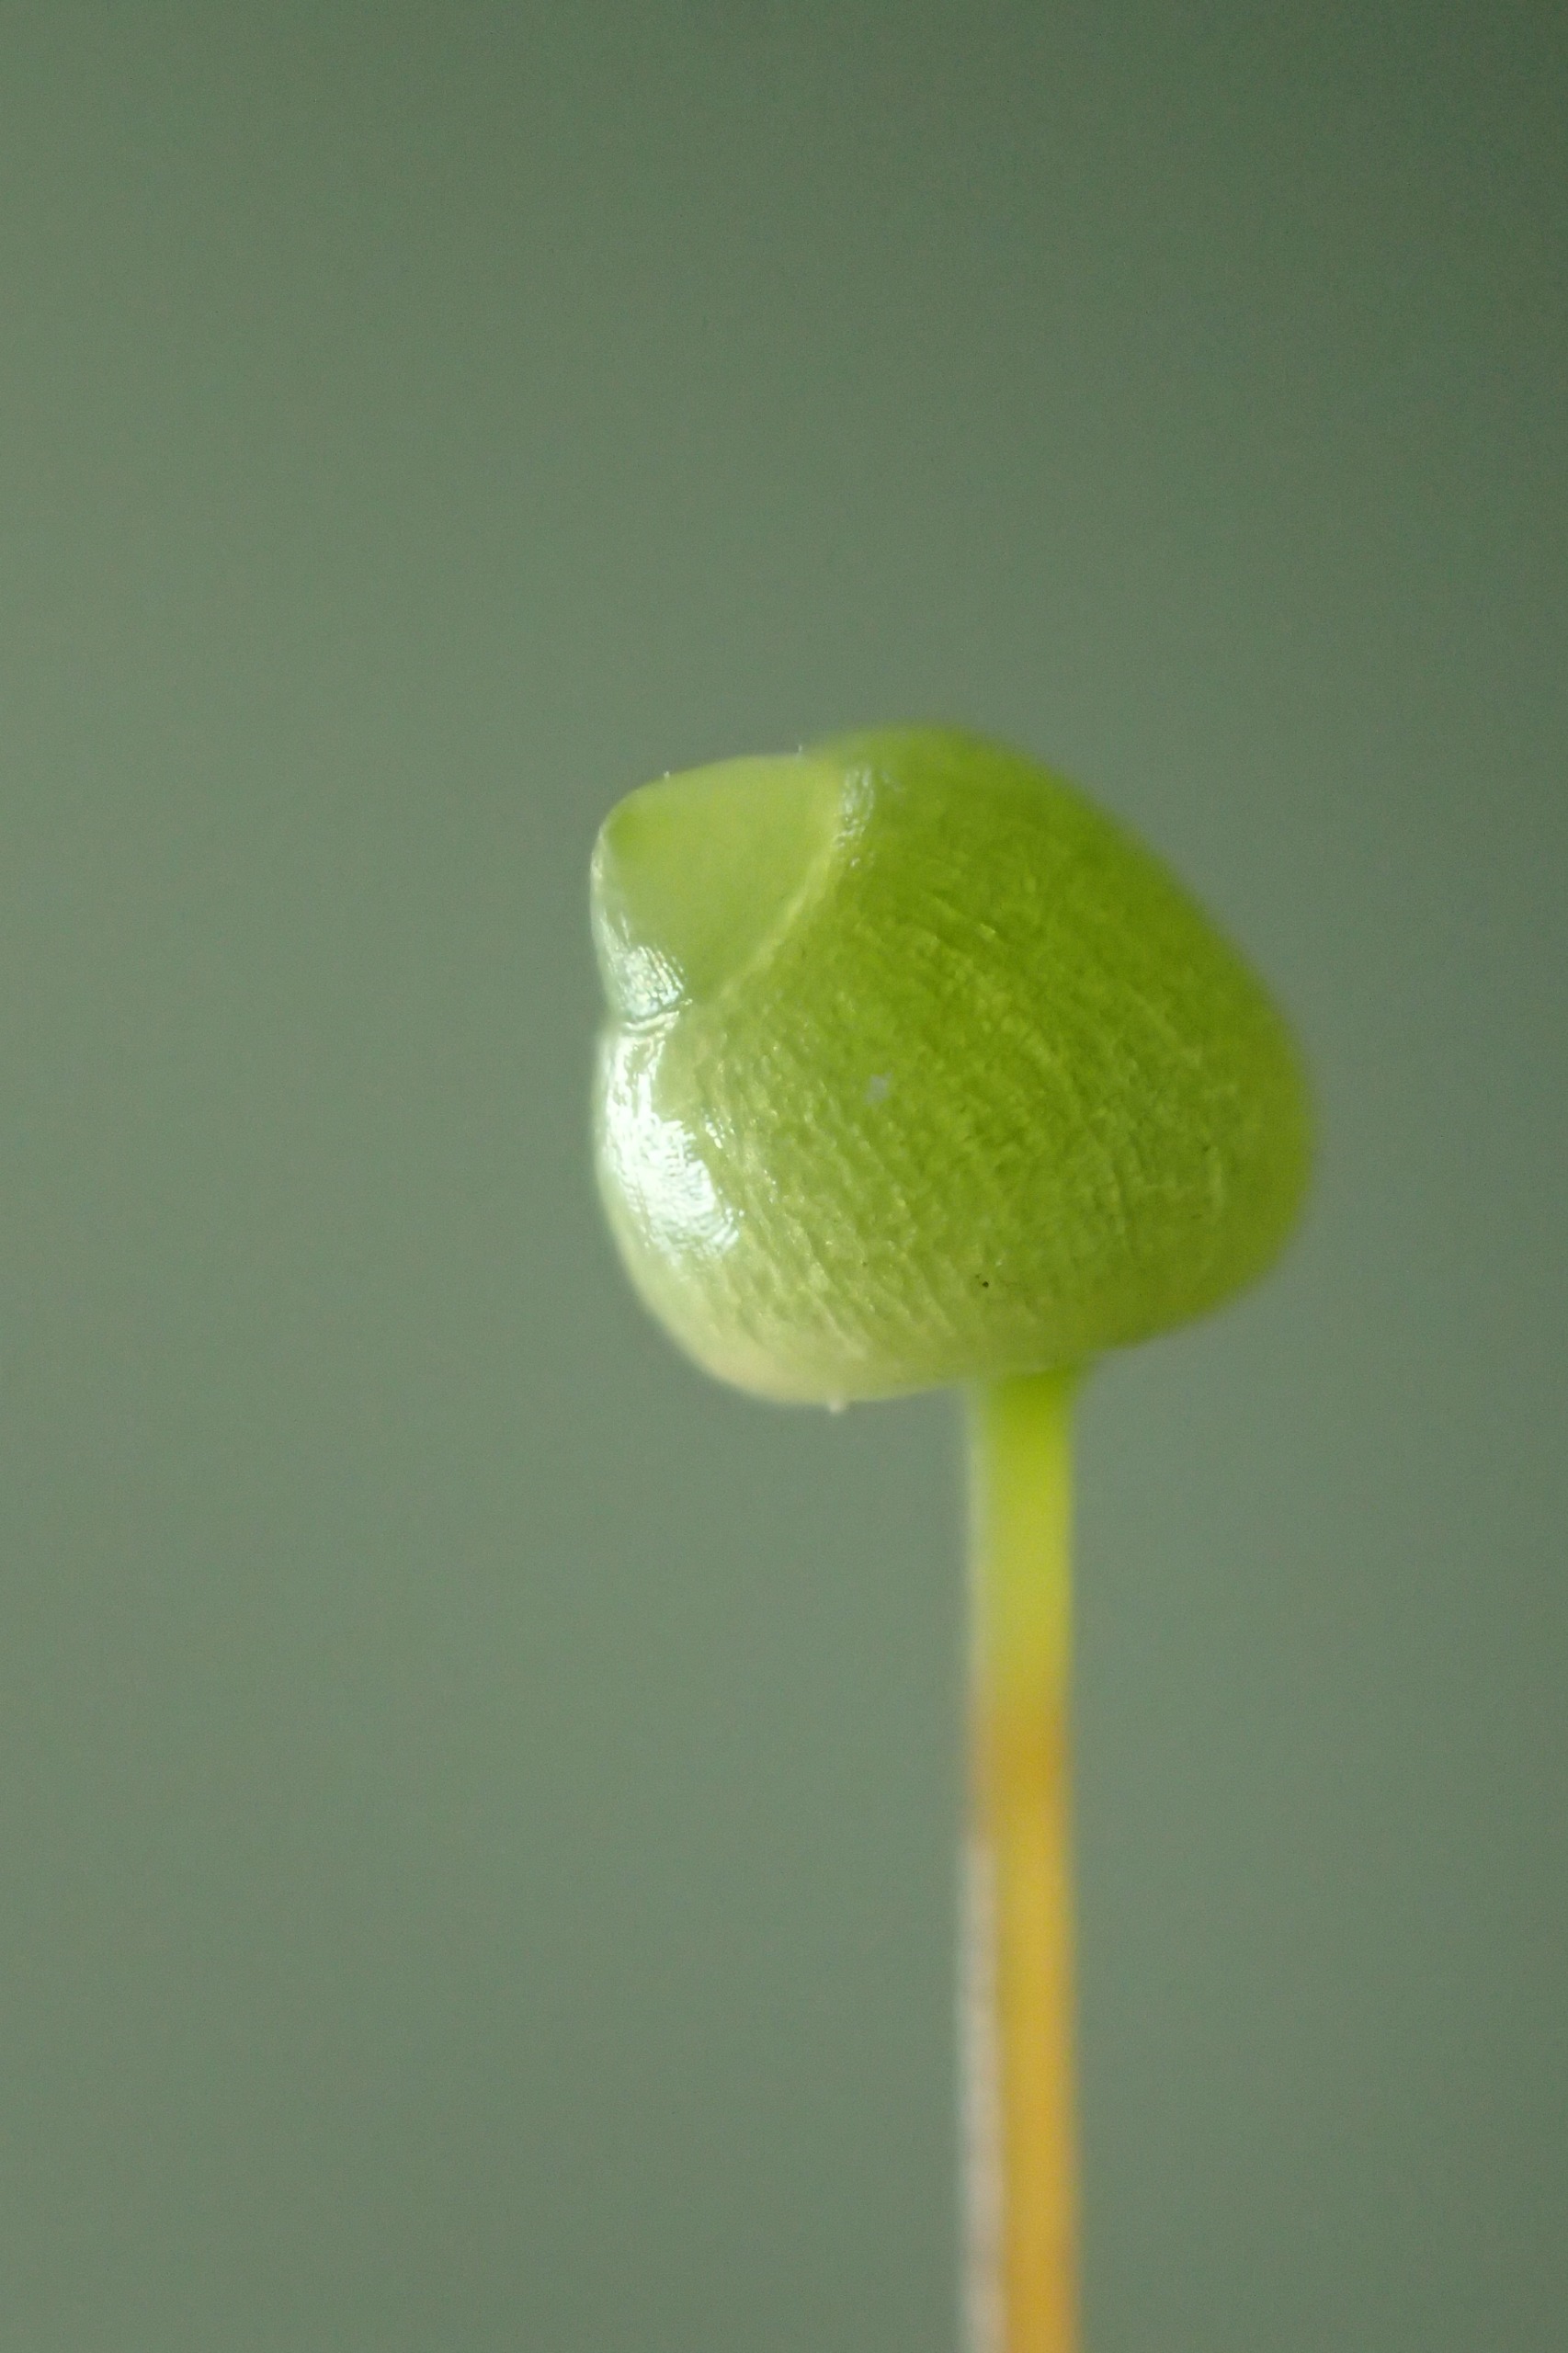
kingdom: Plantae
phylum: Bryophyta
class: Bryopsida
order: Bartramiales
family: Bartramiaceae
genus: Bartramia
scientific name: Bartramia pomiformis
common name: Gulgrøn kuglekapsel
